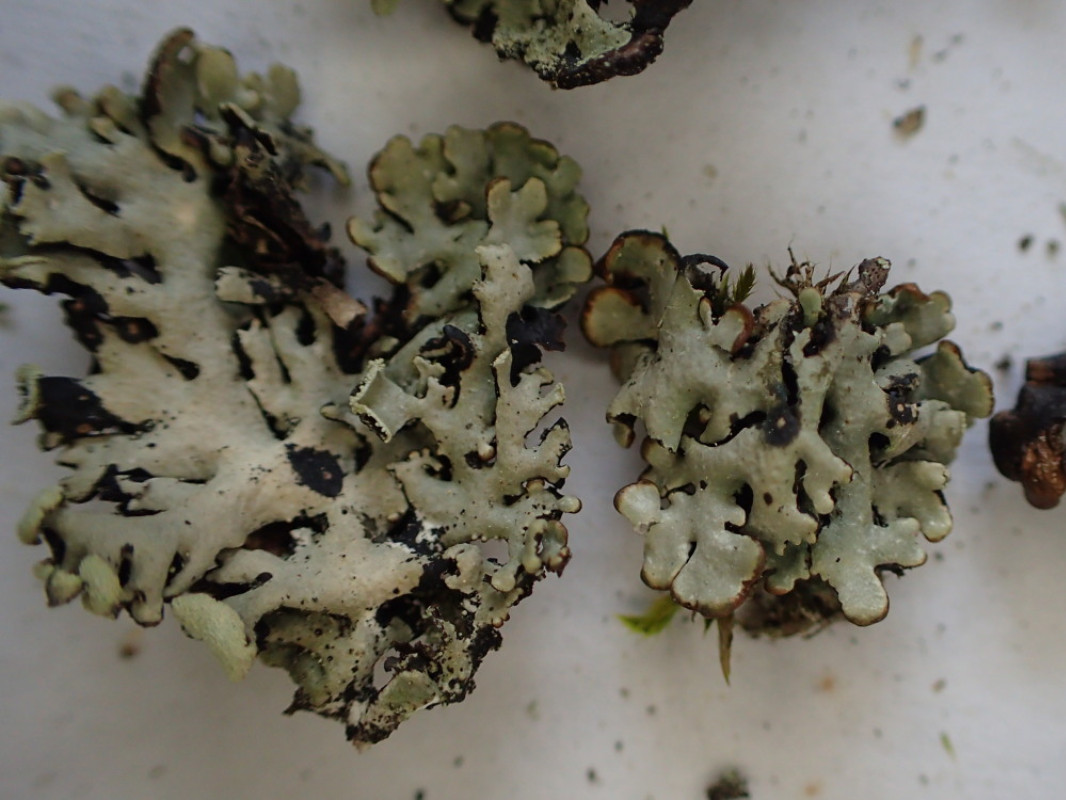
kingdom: Fungi
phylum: Ascomycota
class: Lecanoromycetes
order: Lecanorales
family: Parmeliaceae
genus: Hypogymnia
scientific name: Hypogymnia physodes
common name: almindelig kvistlav
